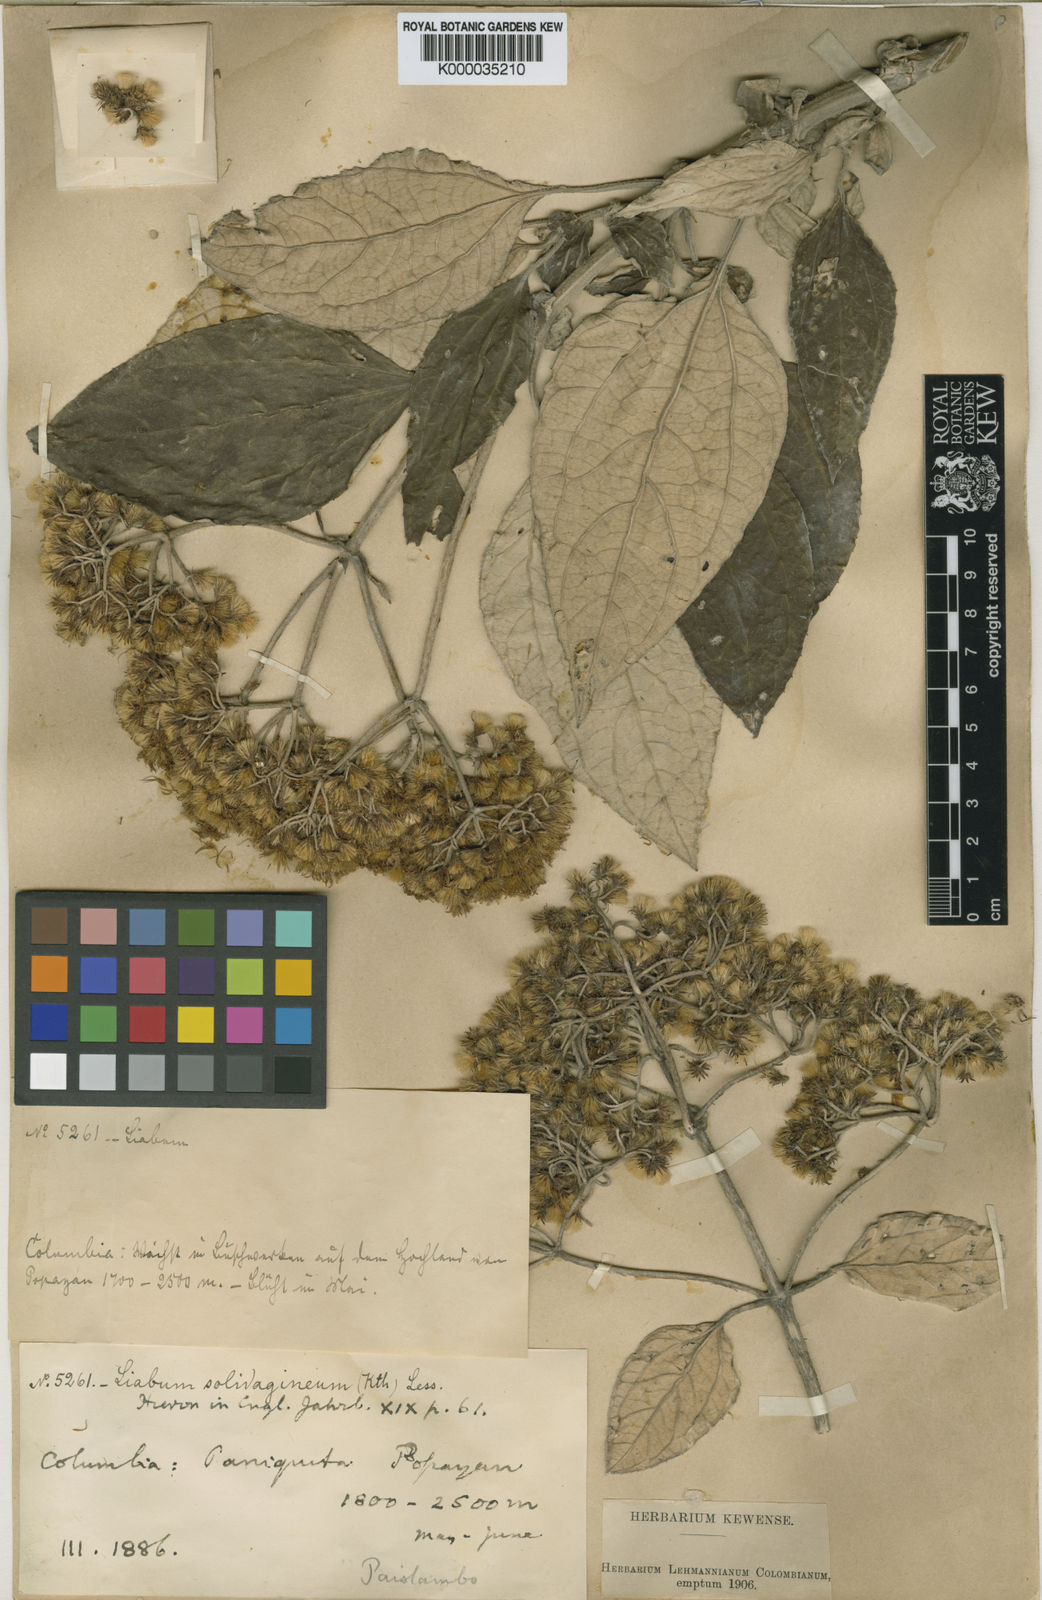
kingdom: Plantae
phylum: Tracheophyta
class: Magnoliopsida
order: Asterales
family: Asteraceae
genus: Liabum
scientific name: Liabum solidagineum
